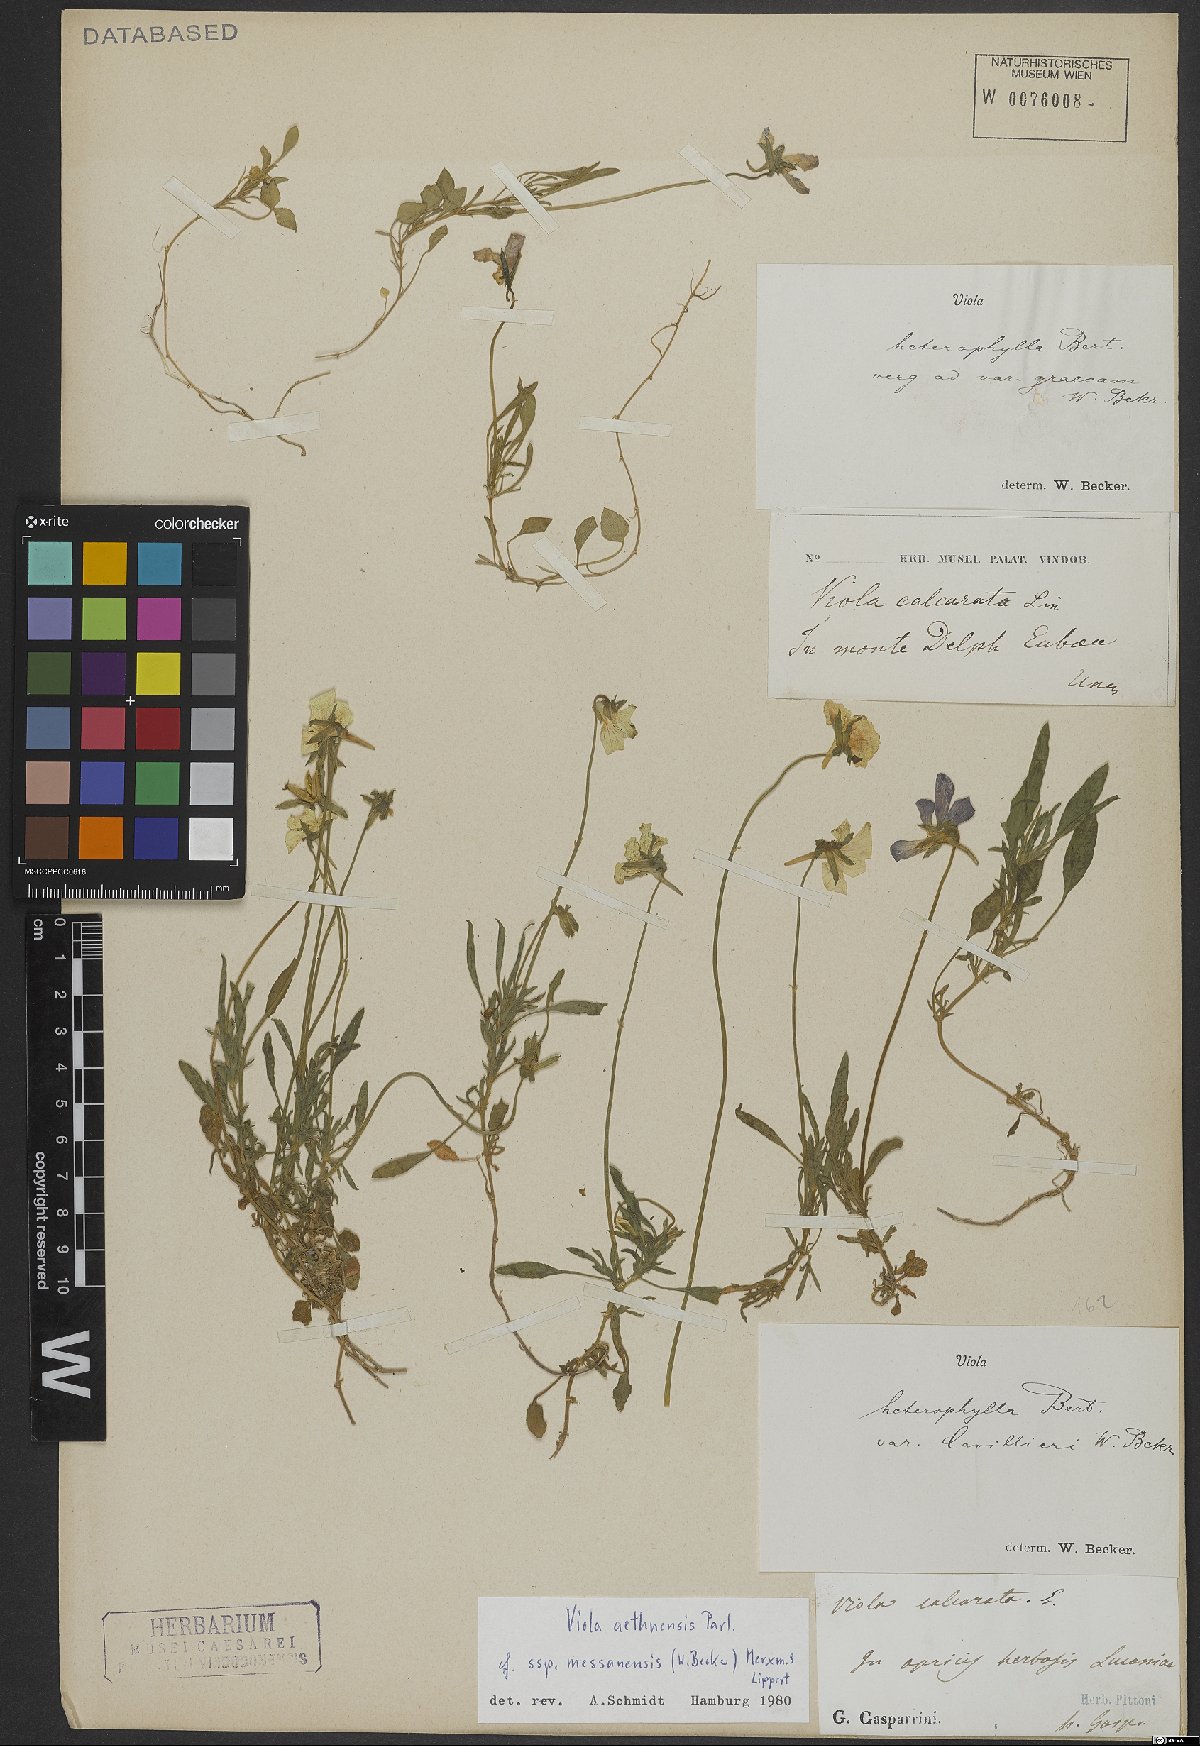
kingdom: Plantae
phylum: Tracheophyta
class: Magnoliopsida
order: Malpighiales
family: Violaceae
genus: Viola
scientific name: Viola graeca
